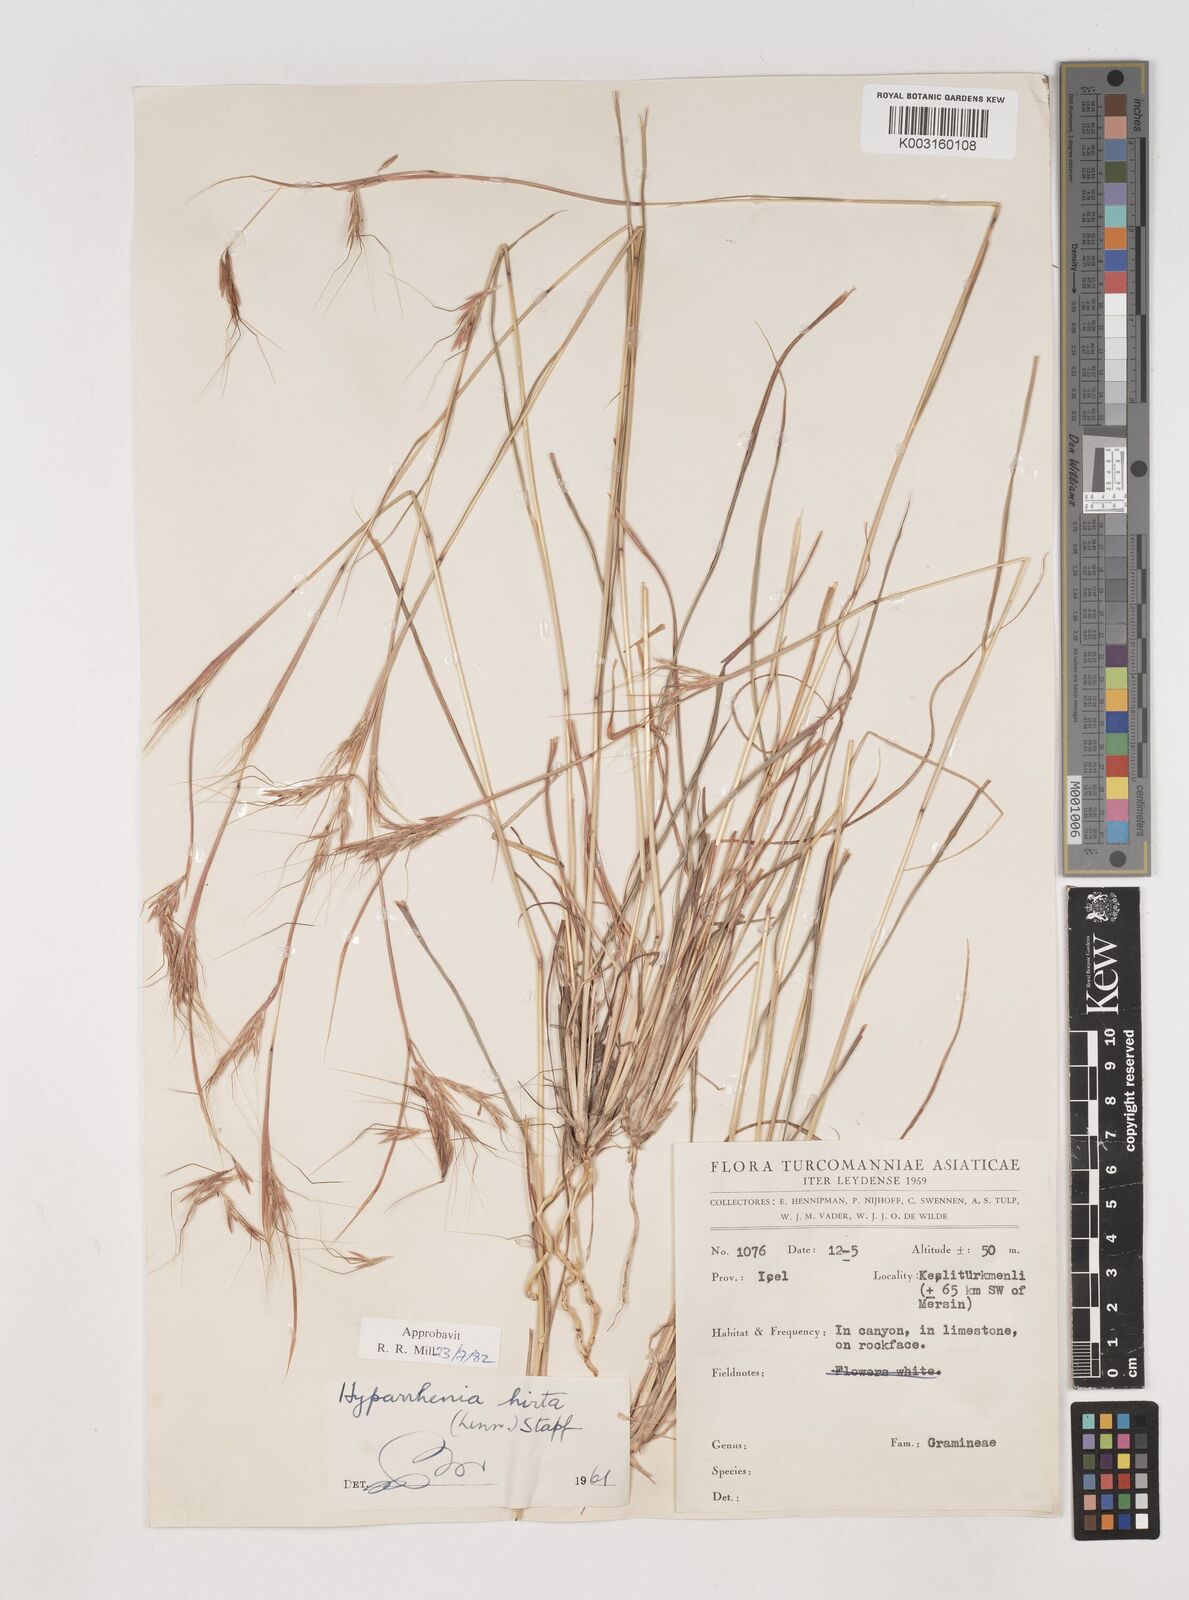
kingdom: Plantae
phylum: Tracheophyta
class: Liliopsida
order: Poales
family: Poaceae
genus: Hyparrhenia
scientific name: Hyparrhenia hirta
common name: Thatching grass
